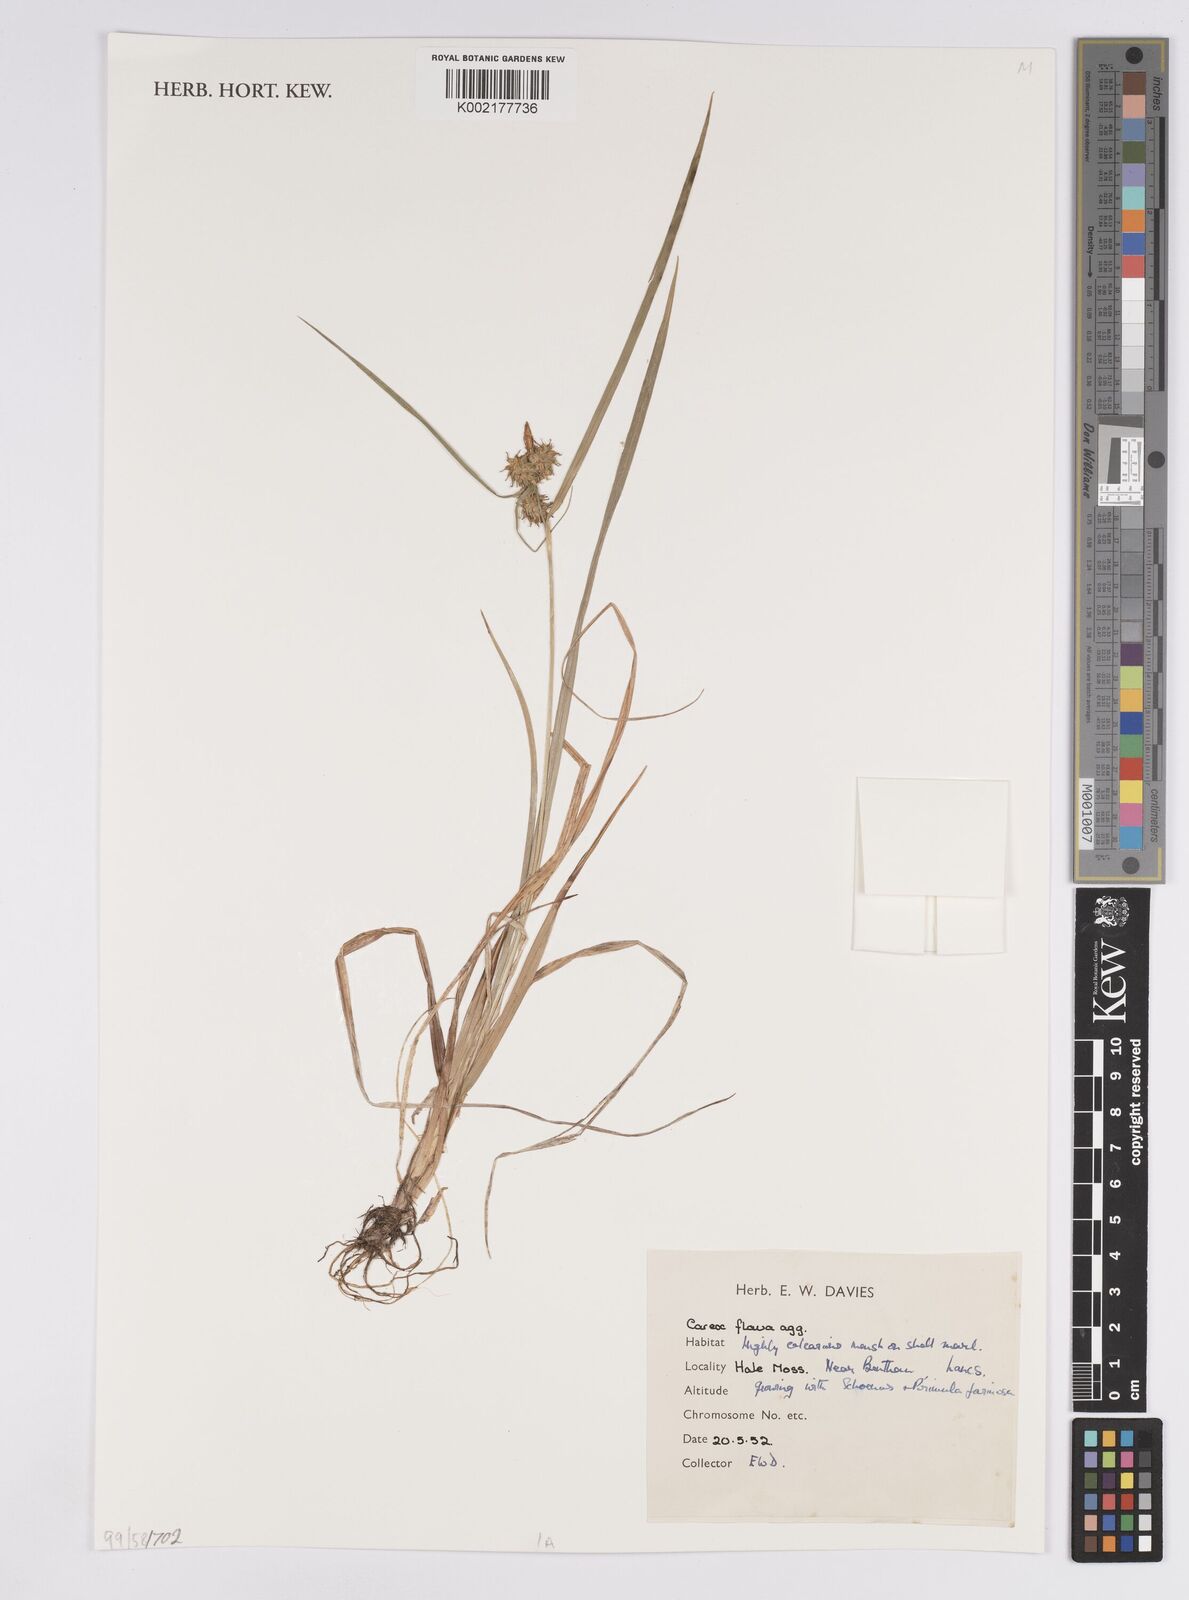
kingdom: Plantae
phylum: Tracheophyta
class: Liliopsida
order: Poales
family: Cyperaceae
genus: Carex
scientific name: Carex flava
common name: Large yellow-sedge
